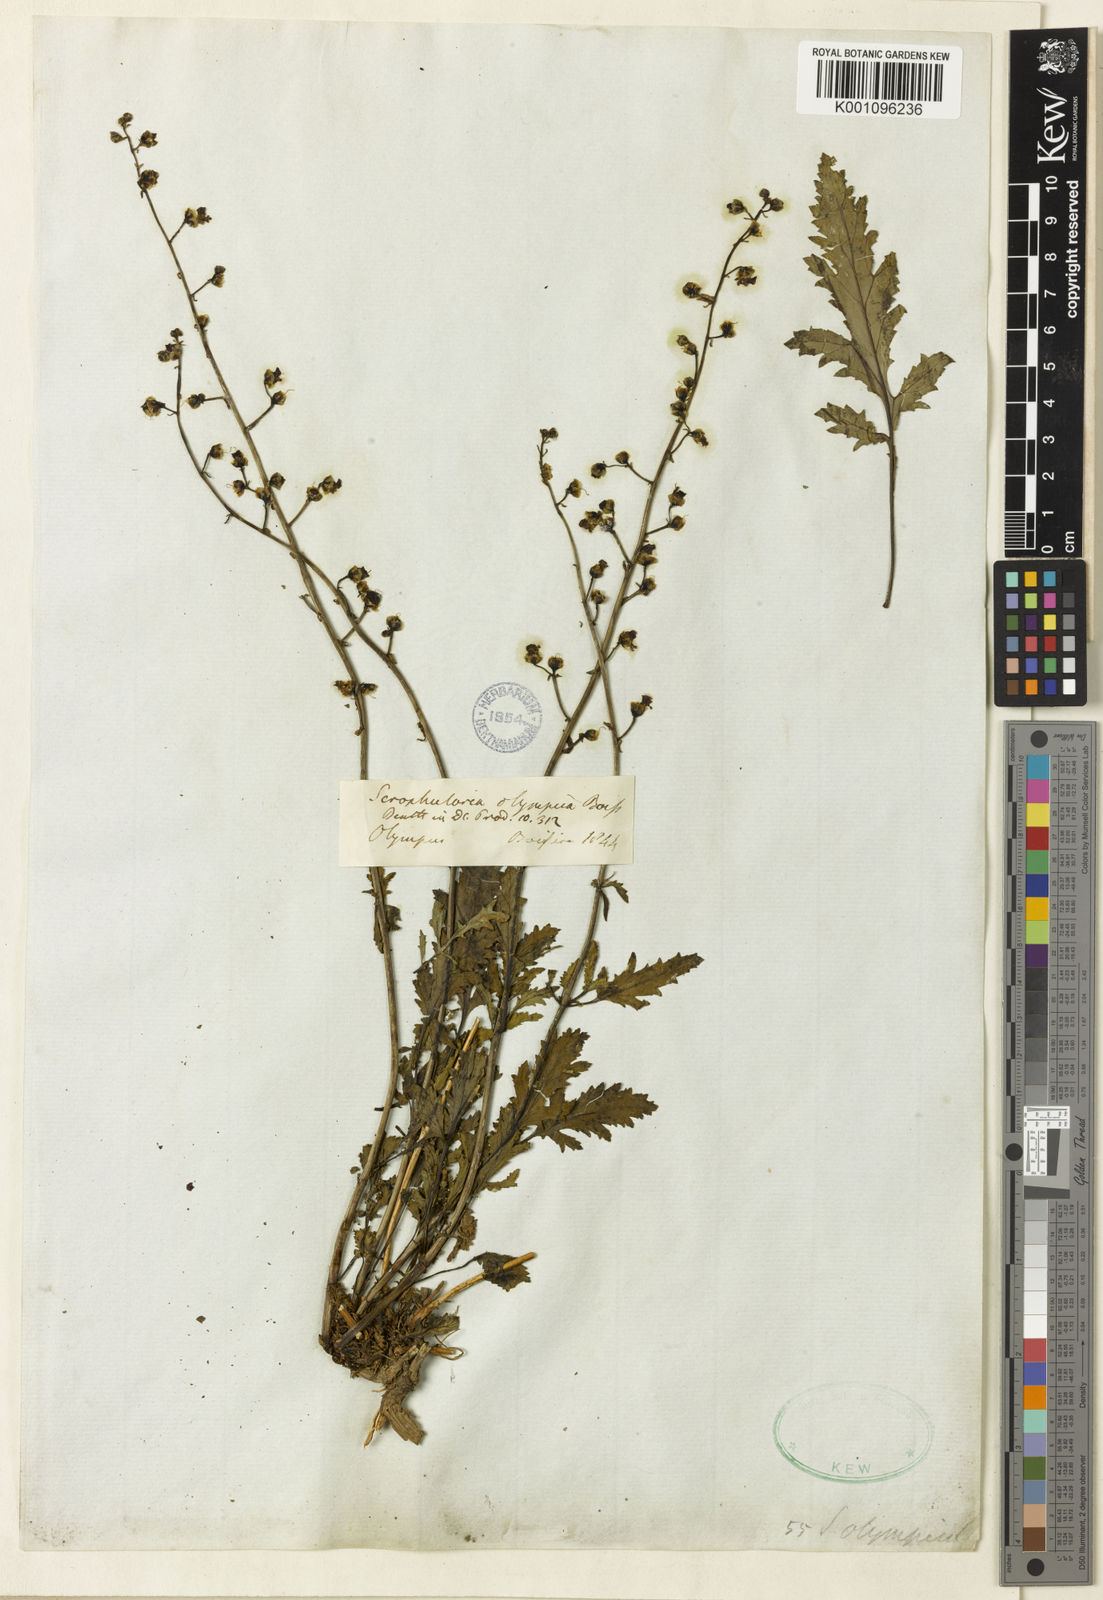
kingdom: Plantae
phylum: Tracheophyta
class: Magnoliopsida
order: Lamiales
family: Scrophulariaceae
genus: Scrophularia
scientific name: Scrophularia olympica
